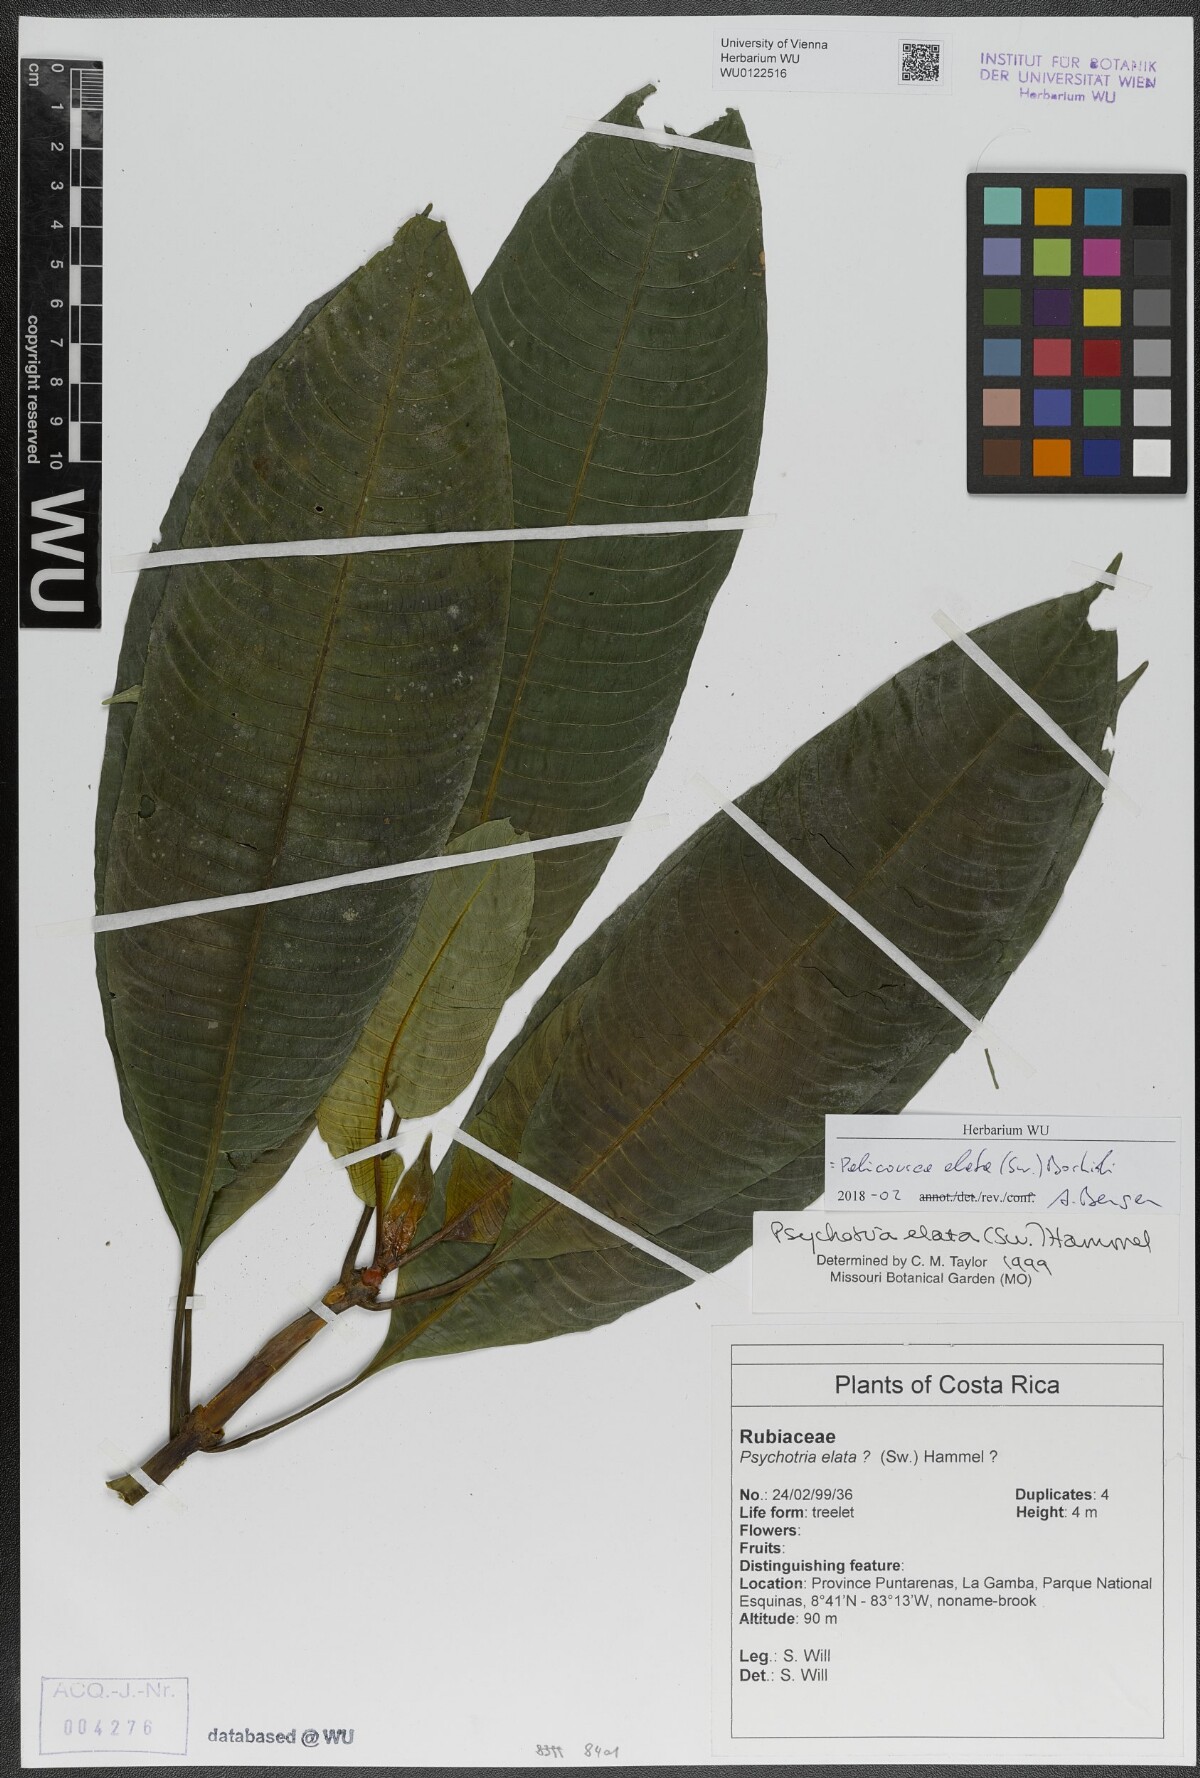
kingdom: Plantae
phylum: Tracheophyta
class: Magnoliopsida
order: Gentianales
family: Rubiaceae
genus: Palicourea
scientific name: Palicourea elata
